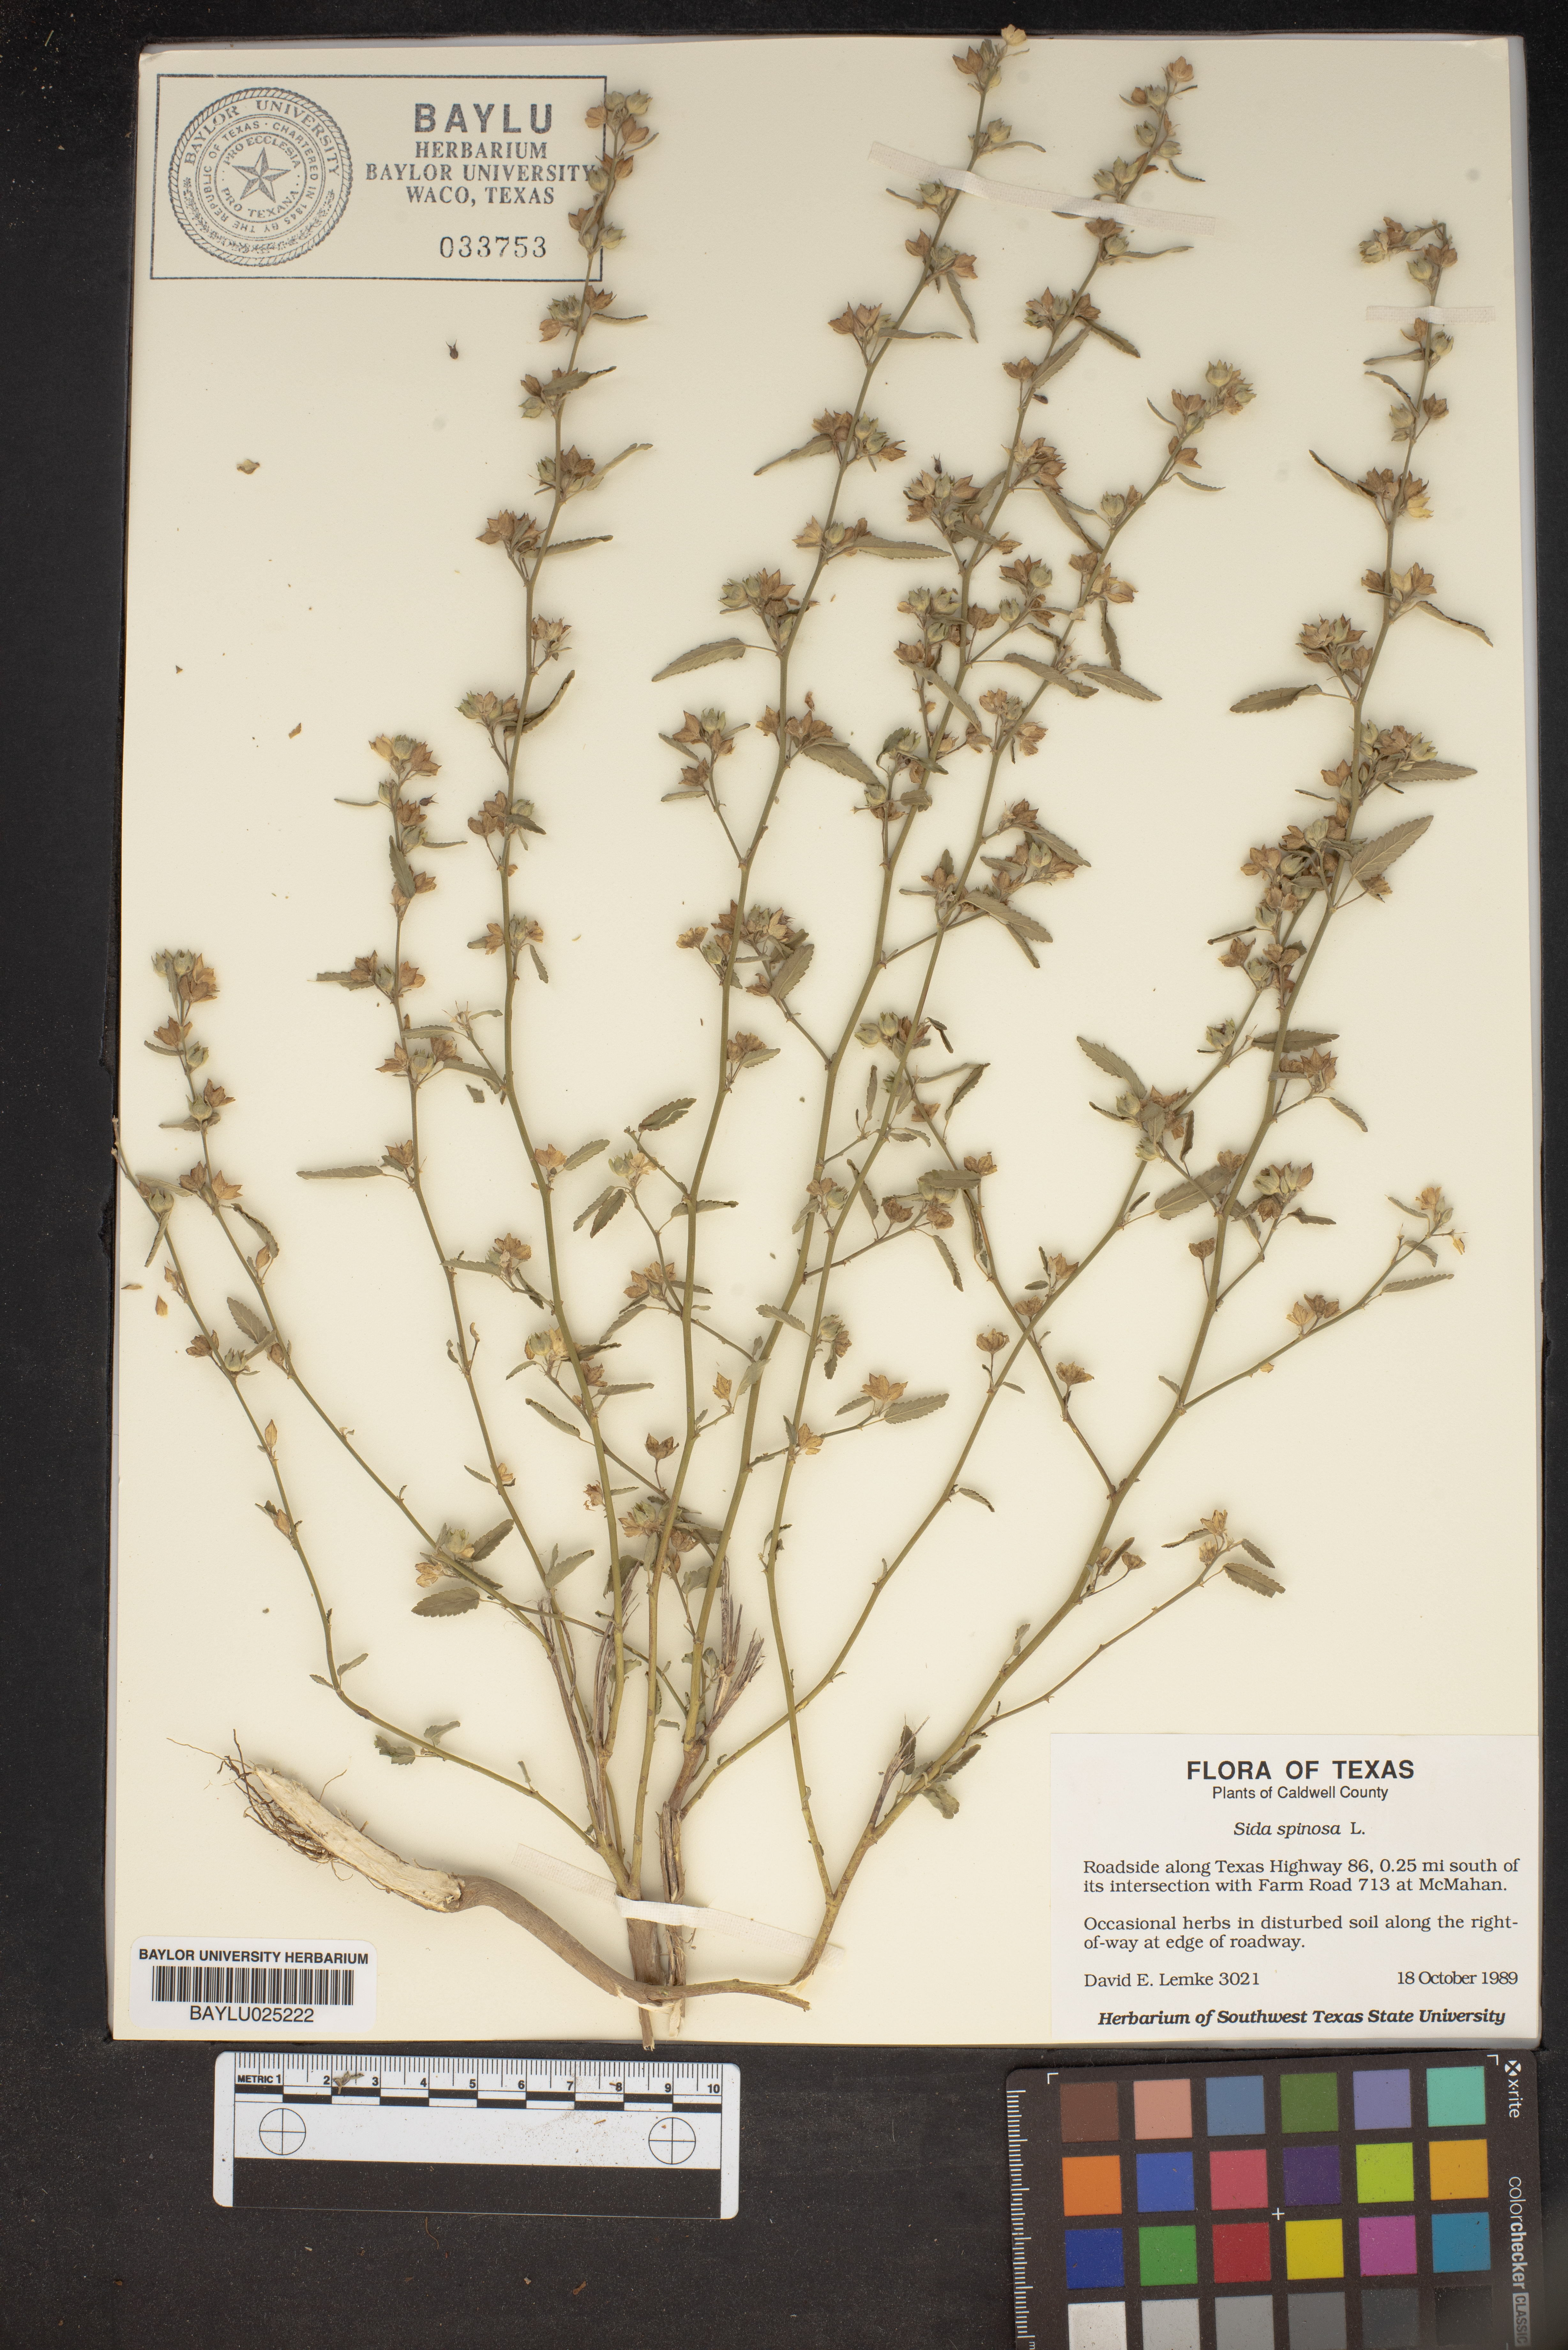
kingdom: Plantae
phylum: Tracheophyta
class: Magnoliopsida
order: Malvales
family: Malvaceae
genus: Sida
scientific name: Sida spinosa
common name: Prickly fanpetals
